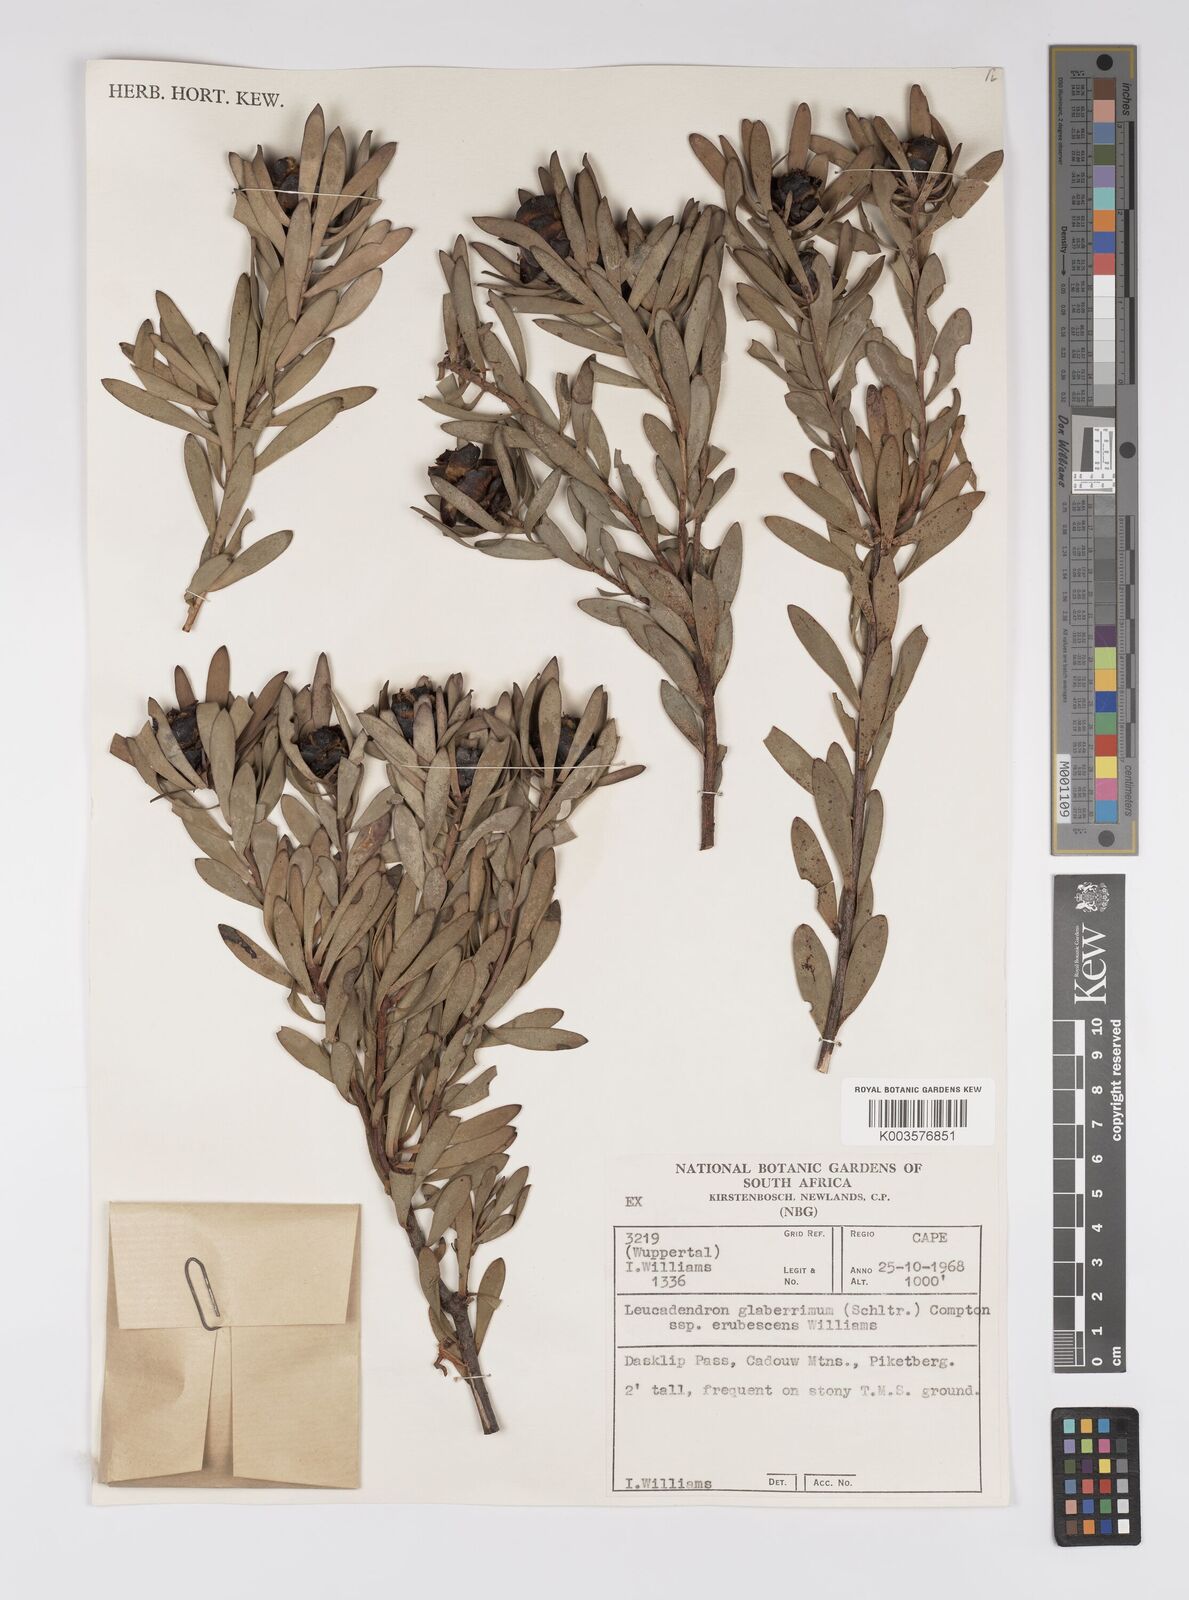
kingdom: Plantae
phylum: Tracheophyta
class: Magnoliopsida
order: Proteales
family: Proteaceae
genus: Leucadendron
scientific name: Leucadendron glaberrimum
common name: Common oily conebush
